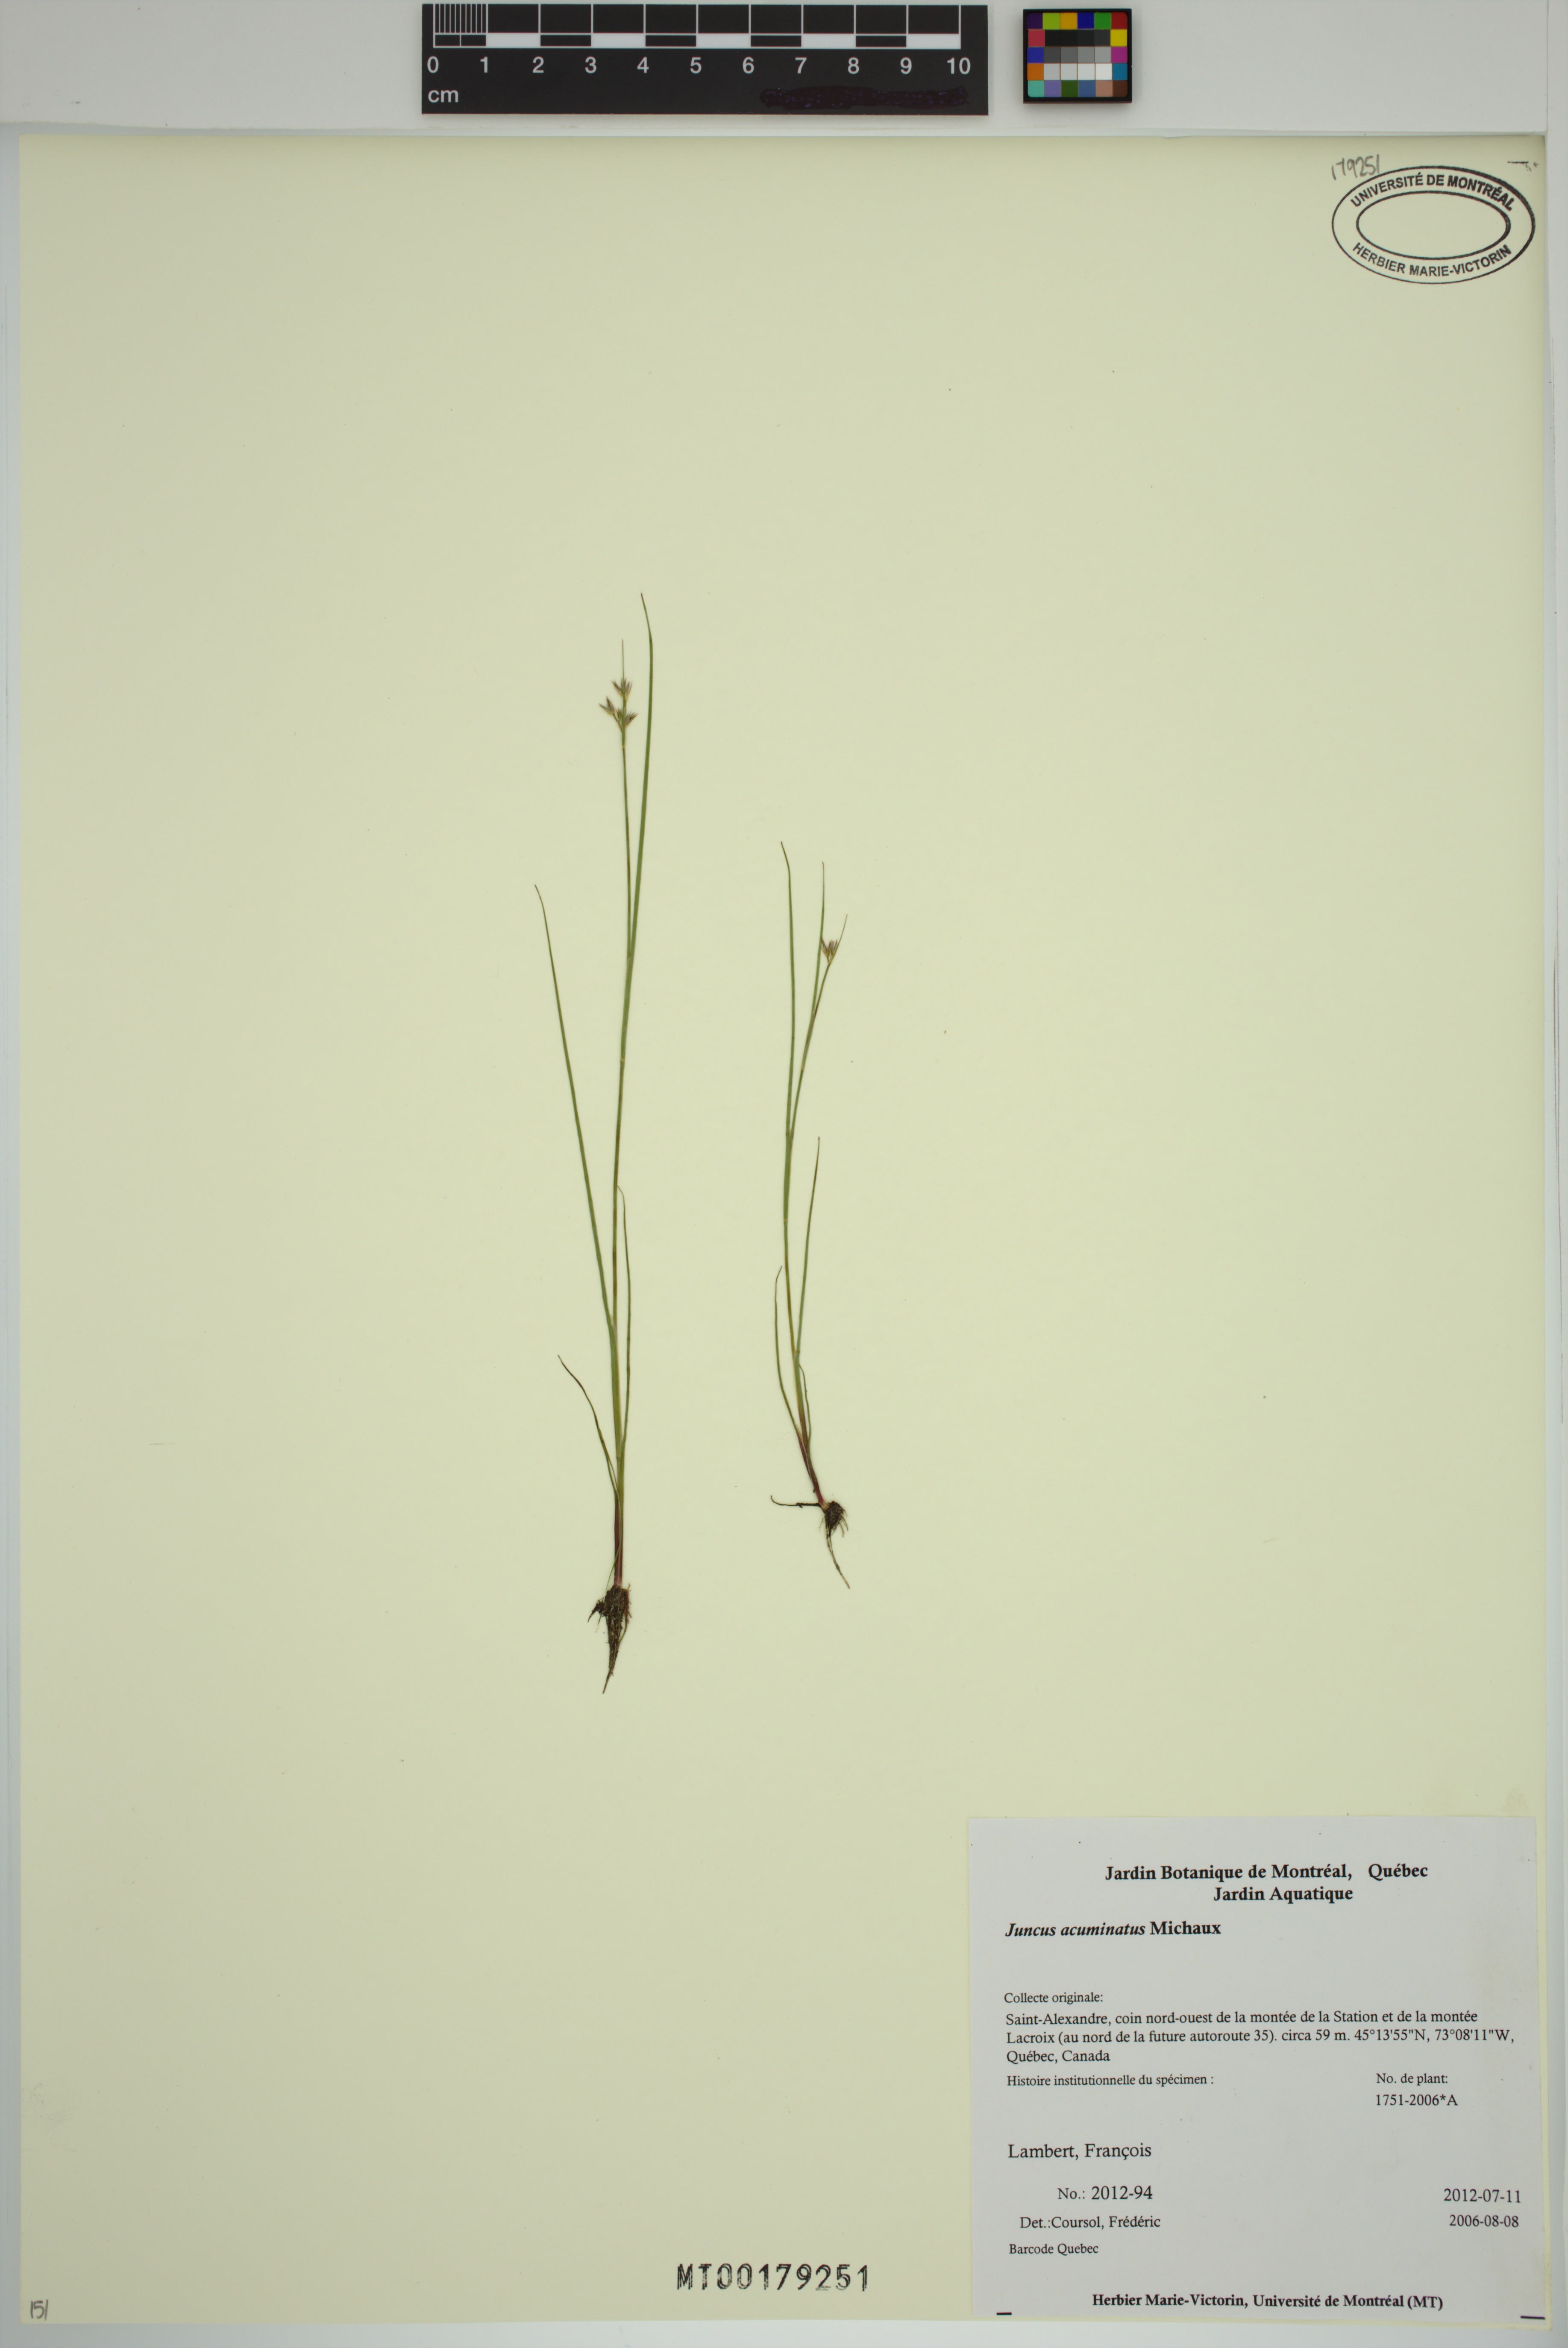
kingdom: Plantae
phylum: Tracheophyta
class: Liliopsida
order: Poales
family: Juncaceae
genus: Juncus
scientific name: Juncus acuminatus
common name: Knotty-leaved rush
